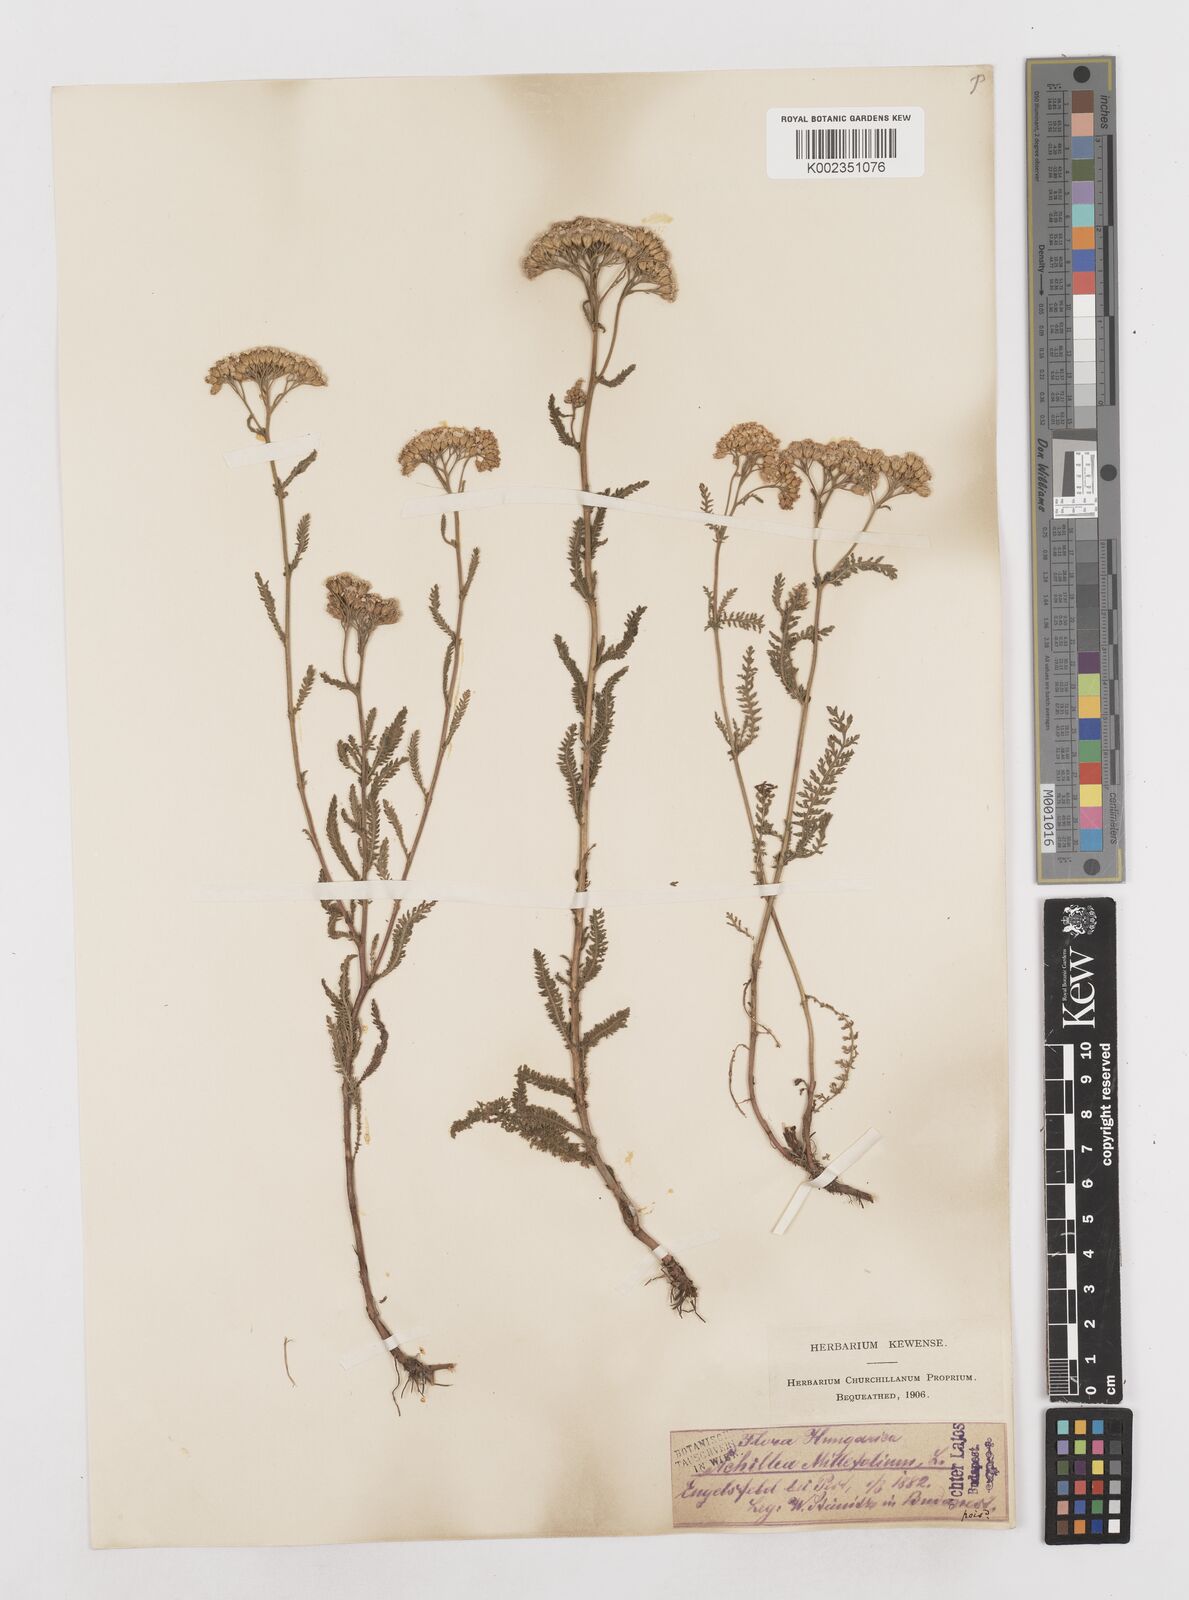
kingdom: Plantae
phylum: Tracheophyta
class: Magnoliopsida
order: Asterales
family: Asteraceae
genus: Achillea
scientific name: Achillea millefolium
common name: Yarrow
